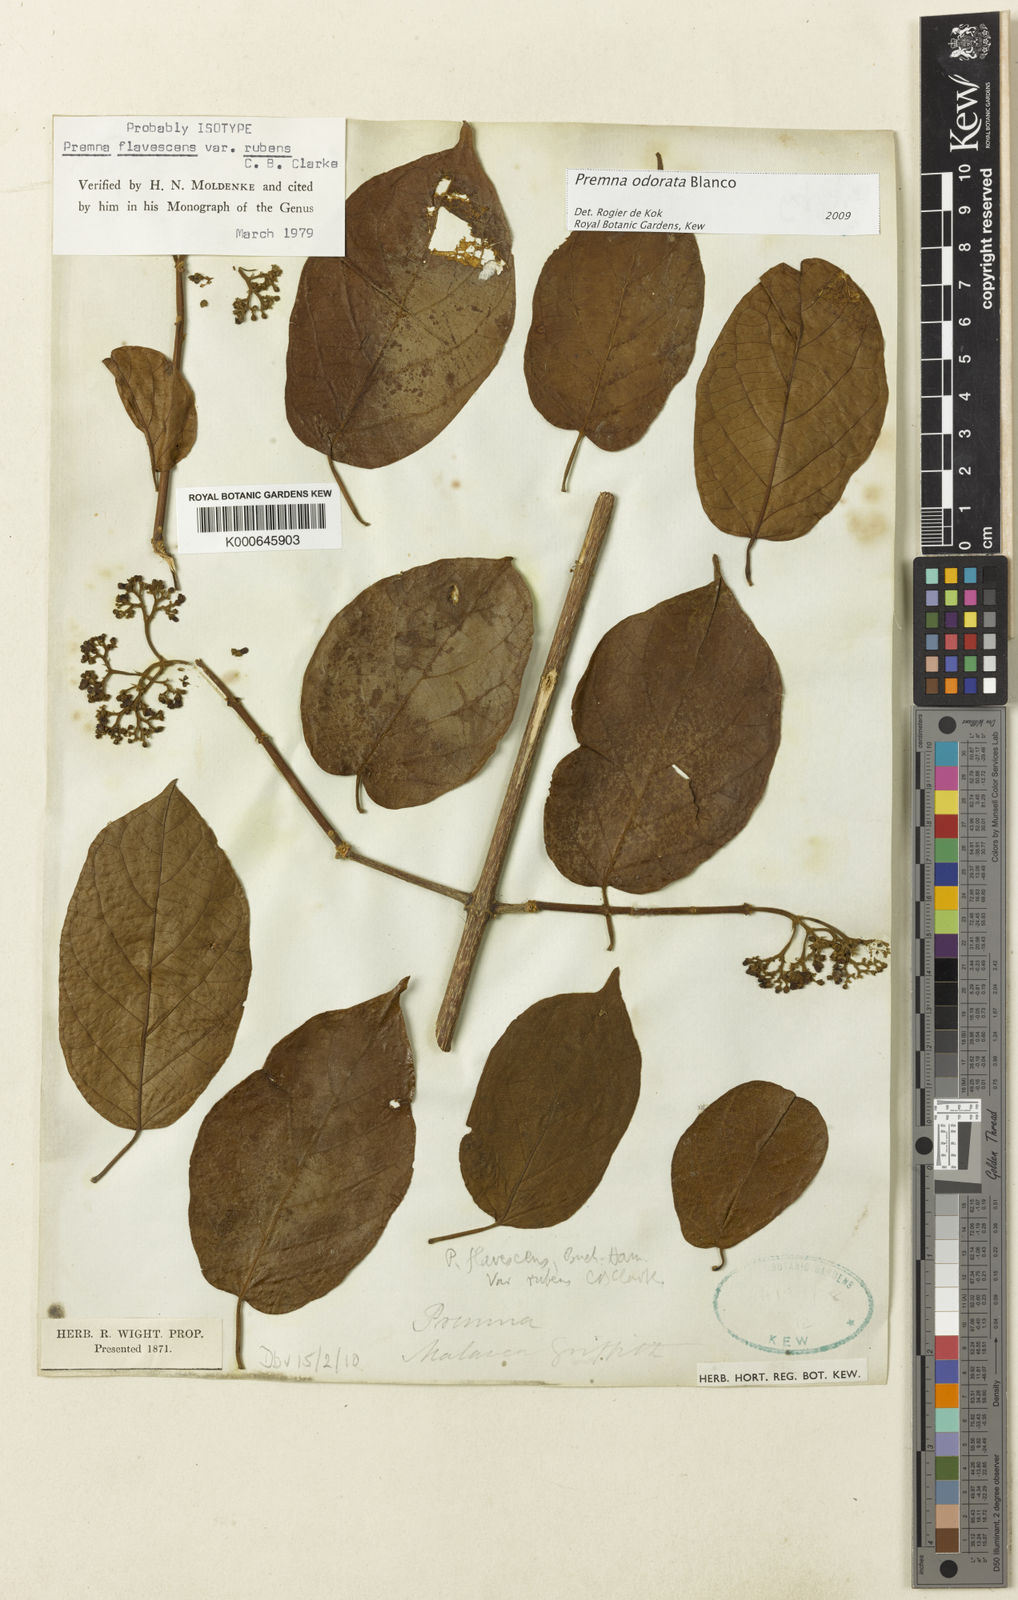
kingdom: Plantae
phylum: Tracheophyta
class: Magnoliopsida
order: Lamiales
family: Lamiaceae
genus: Premna
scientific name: Premna odorata
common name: Fragrant premna
